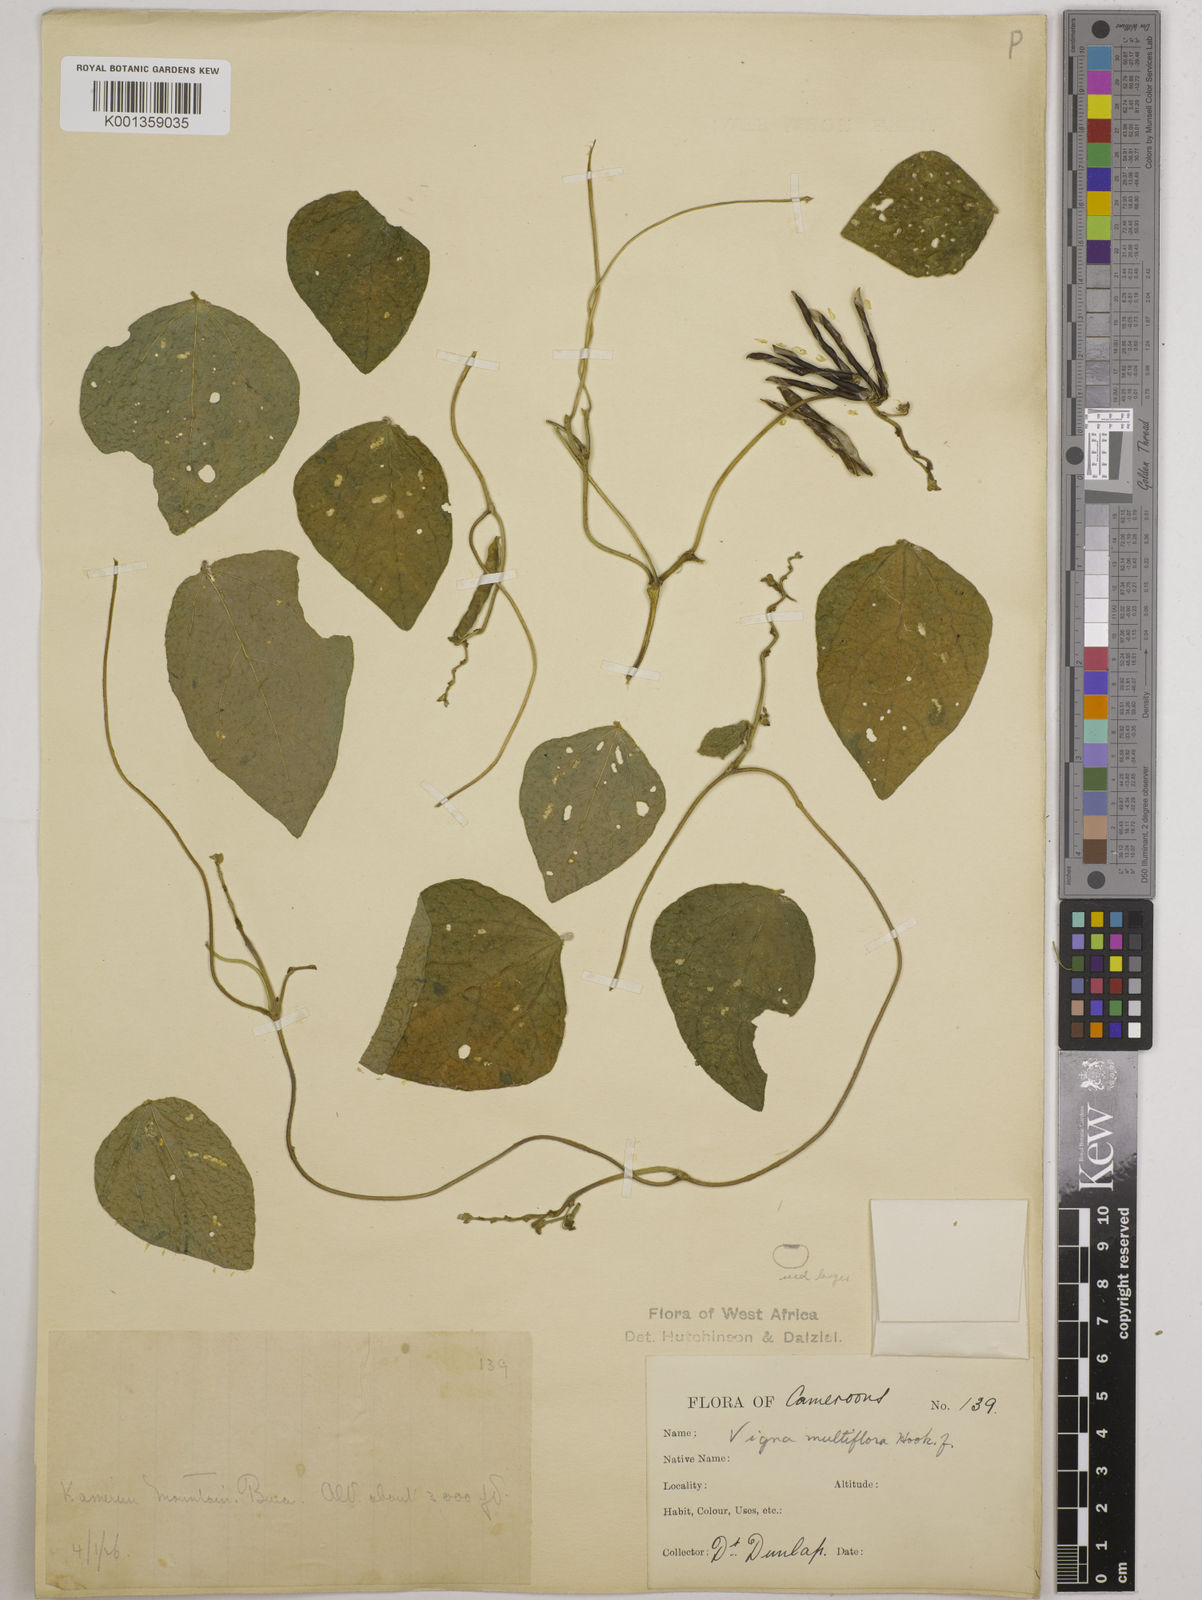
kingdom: Plantae
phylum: Tracheophyta
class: Magnoliopsida
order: Fabales
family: Fabaceae
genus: Vigna
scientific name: Vigna gracilis
